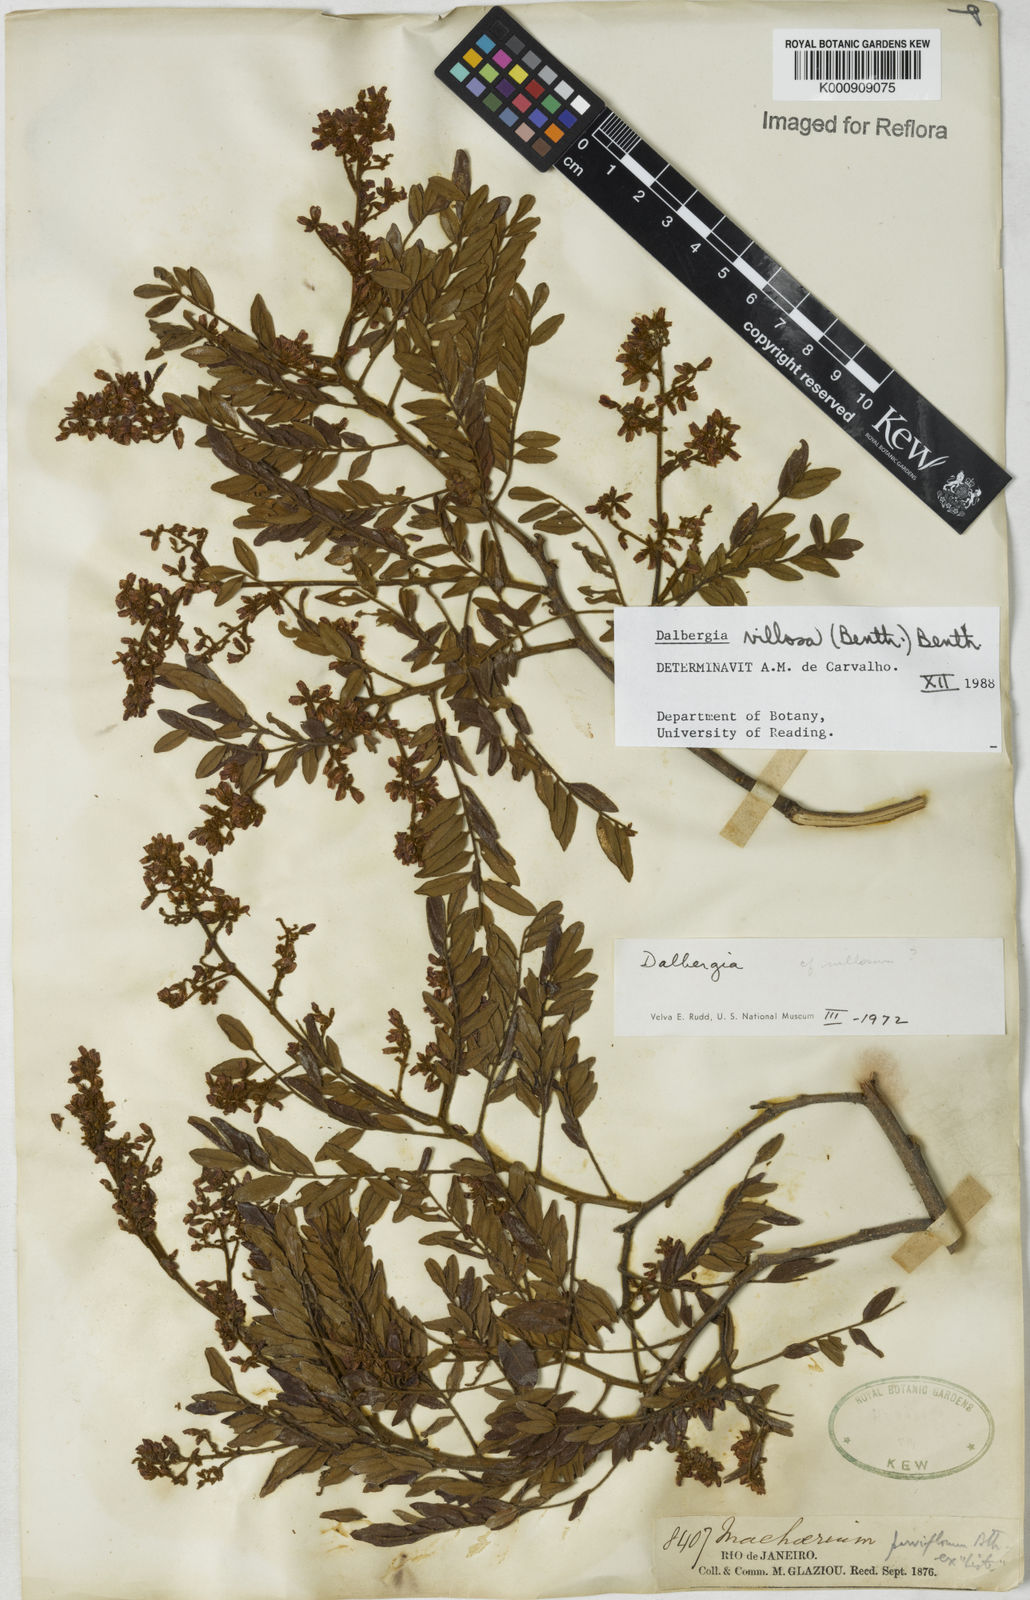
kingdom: Plantae
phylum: Tracheophyta
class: Magnoliopsida
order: Fabales
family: Fabaceae
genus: Dalbergia
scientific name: Dalbergia villosa
